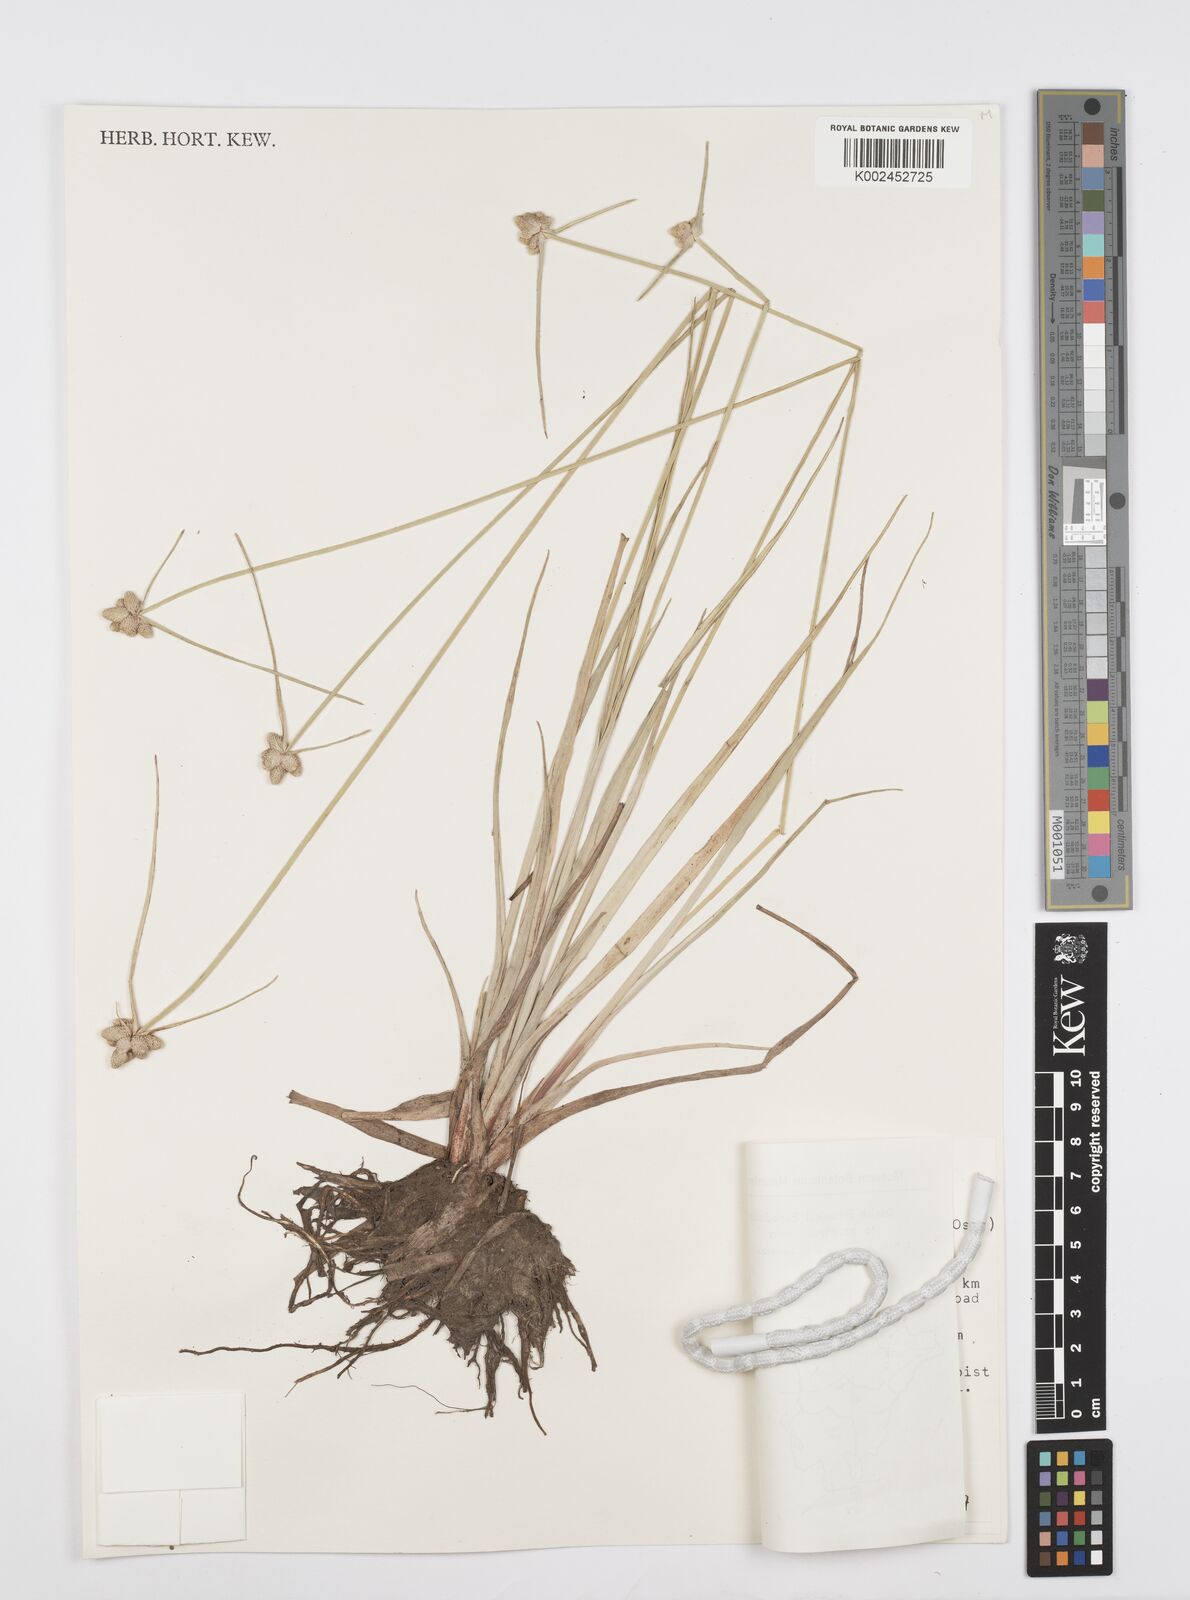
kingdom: Plantae
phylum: Tracheophyta
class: Liliopsida
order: Poales
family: Cyperaceae
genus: Cyperus
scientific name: Cyperus albescens
